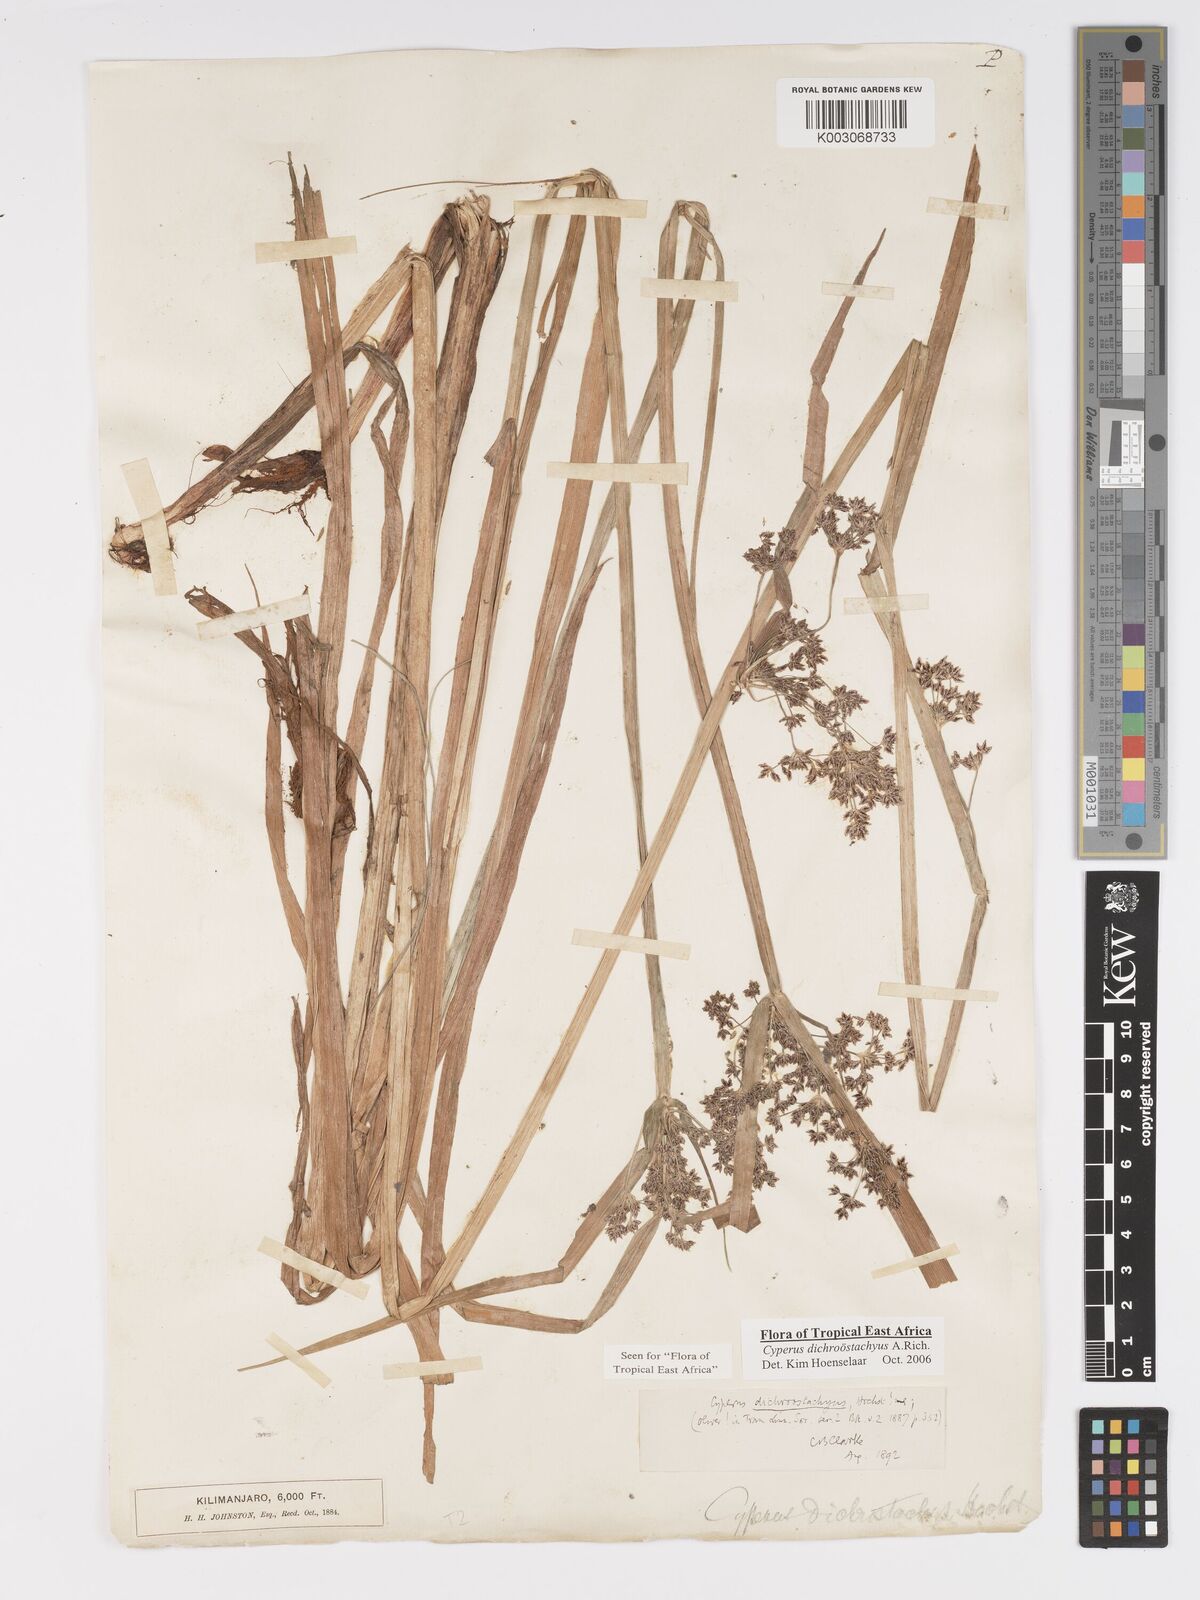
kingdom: Plantae
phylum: Tracheophyta
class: Liliopsida
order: Poales
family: Cyperaceae
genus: Cyperus
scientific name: Cyperus dichrostachyus
